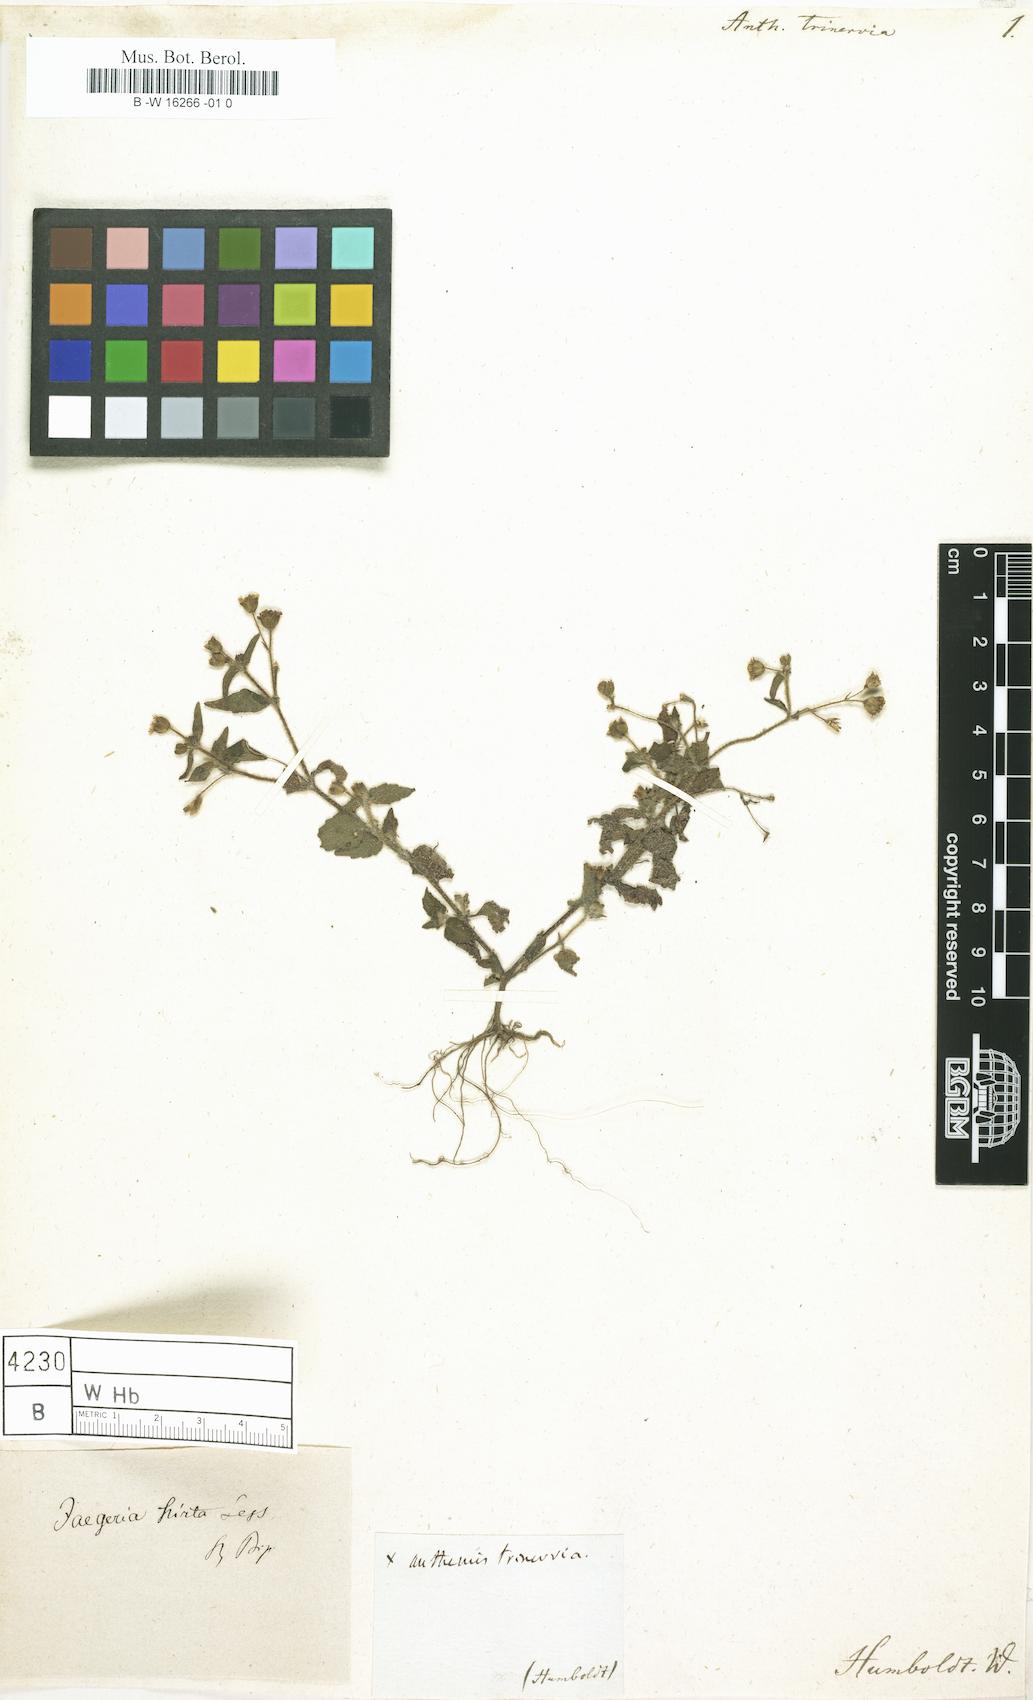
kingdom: Plantae
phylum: Tracheophyta
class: Magnoliopsida
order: Asterales
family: Asteraceae
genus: Acmella
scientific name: Acmella repens
